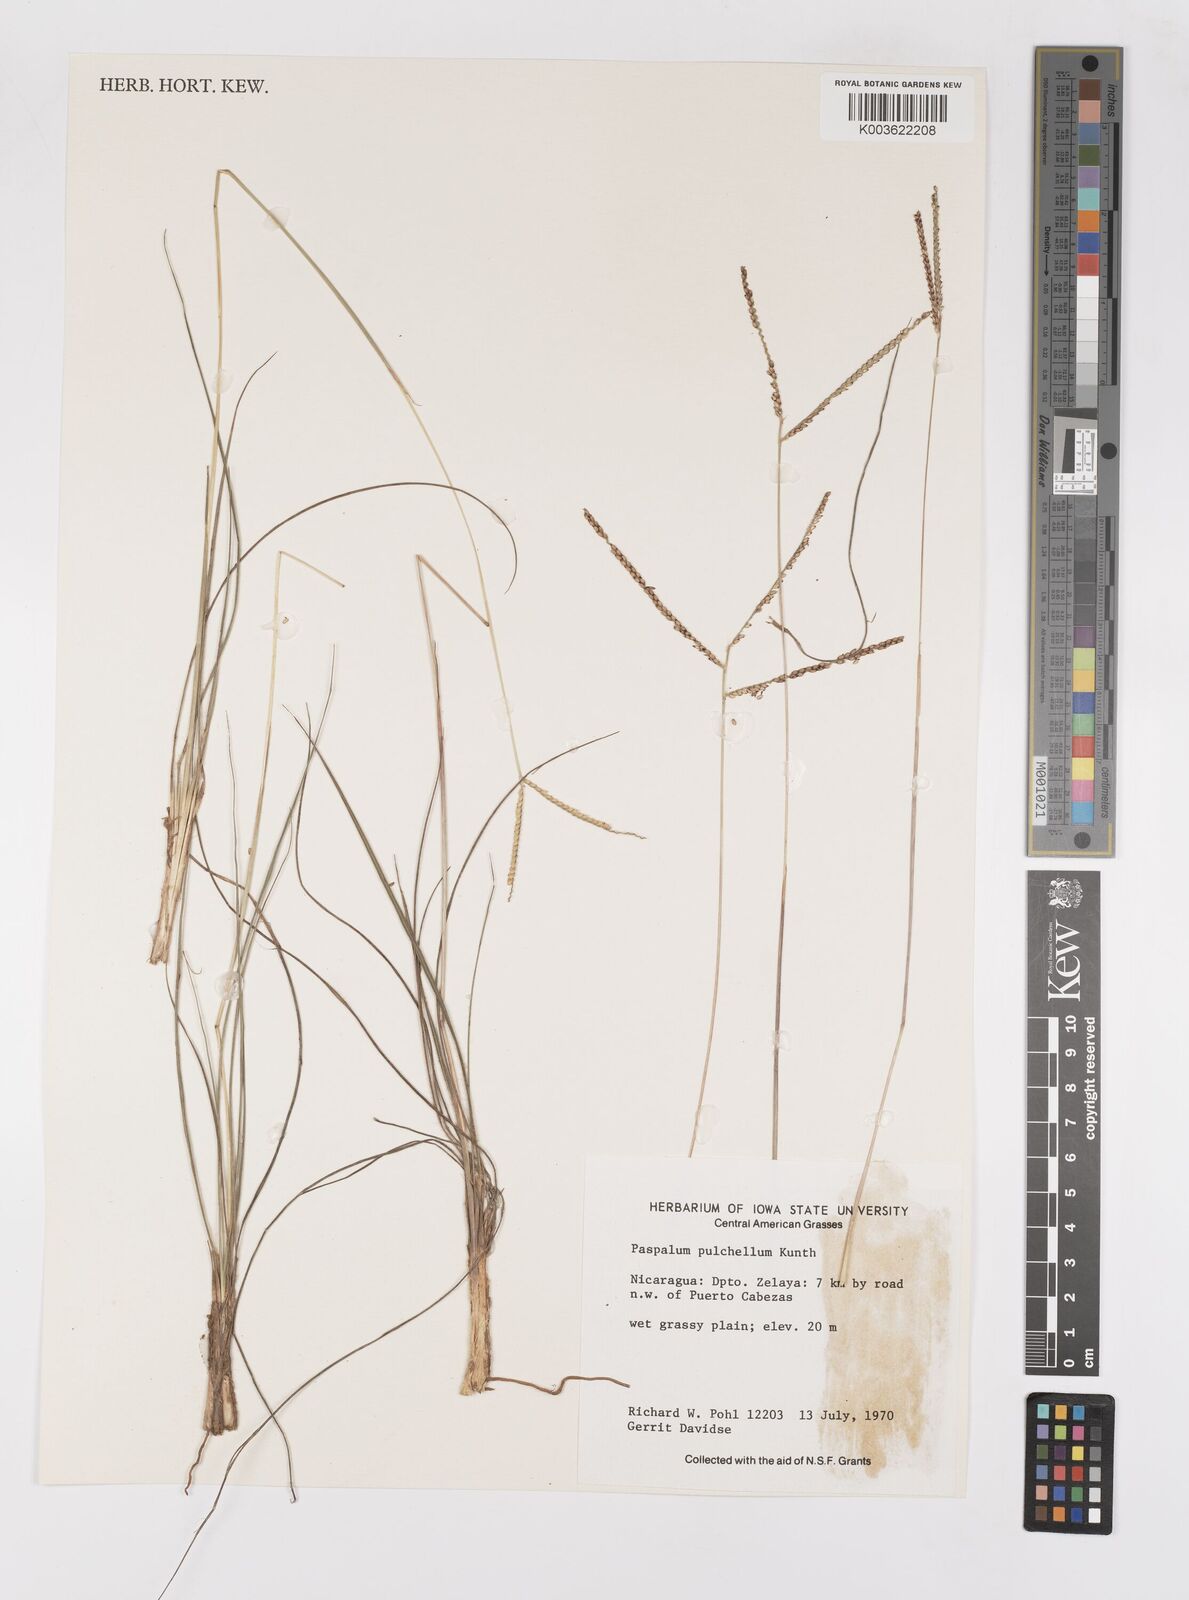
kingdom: Plantae
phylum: Tracheophyta
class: Liliopsida
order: Poales
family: Poaceae
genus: Paspalum
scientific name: Paspalum pulchellum
